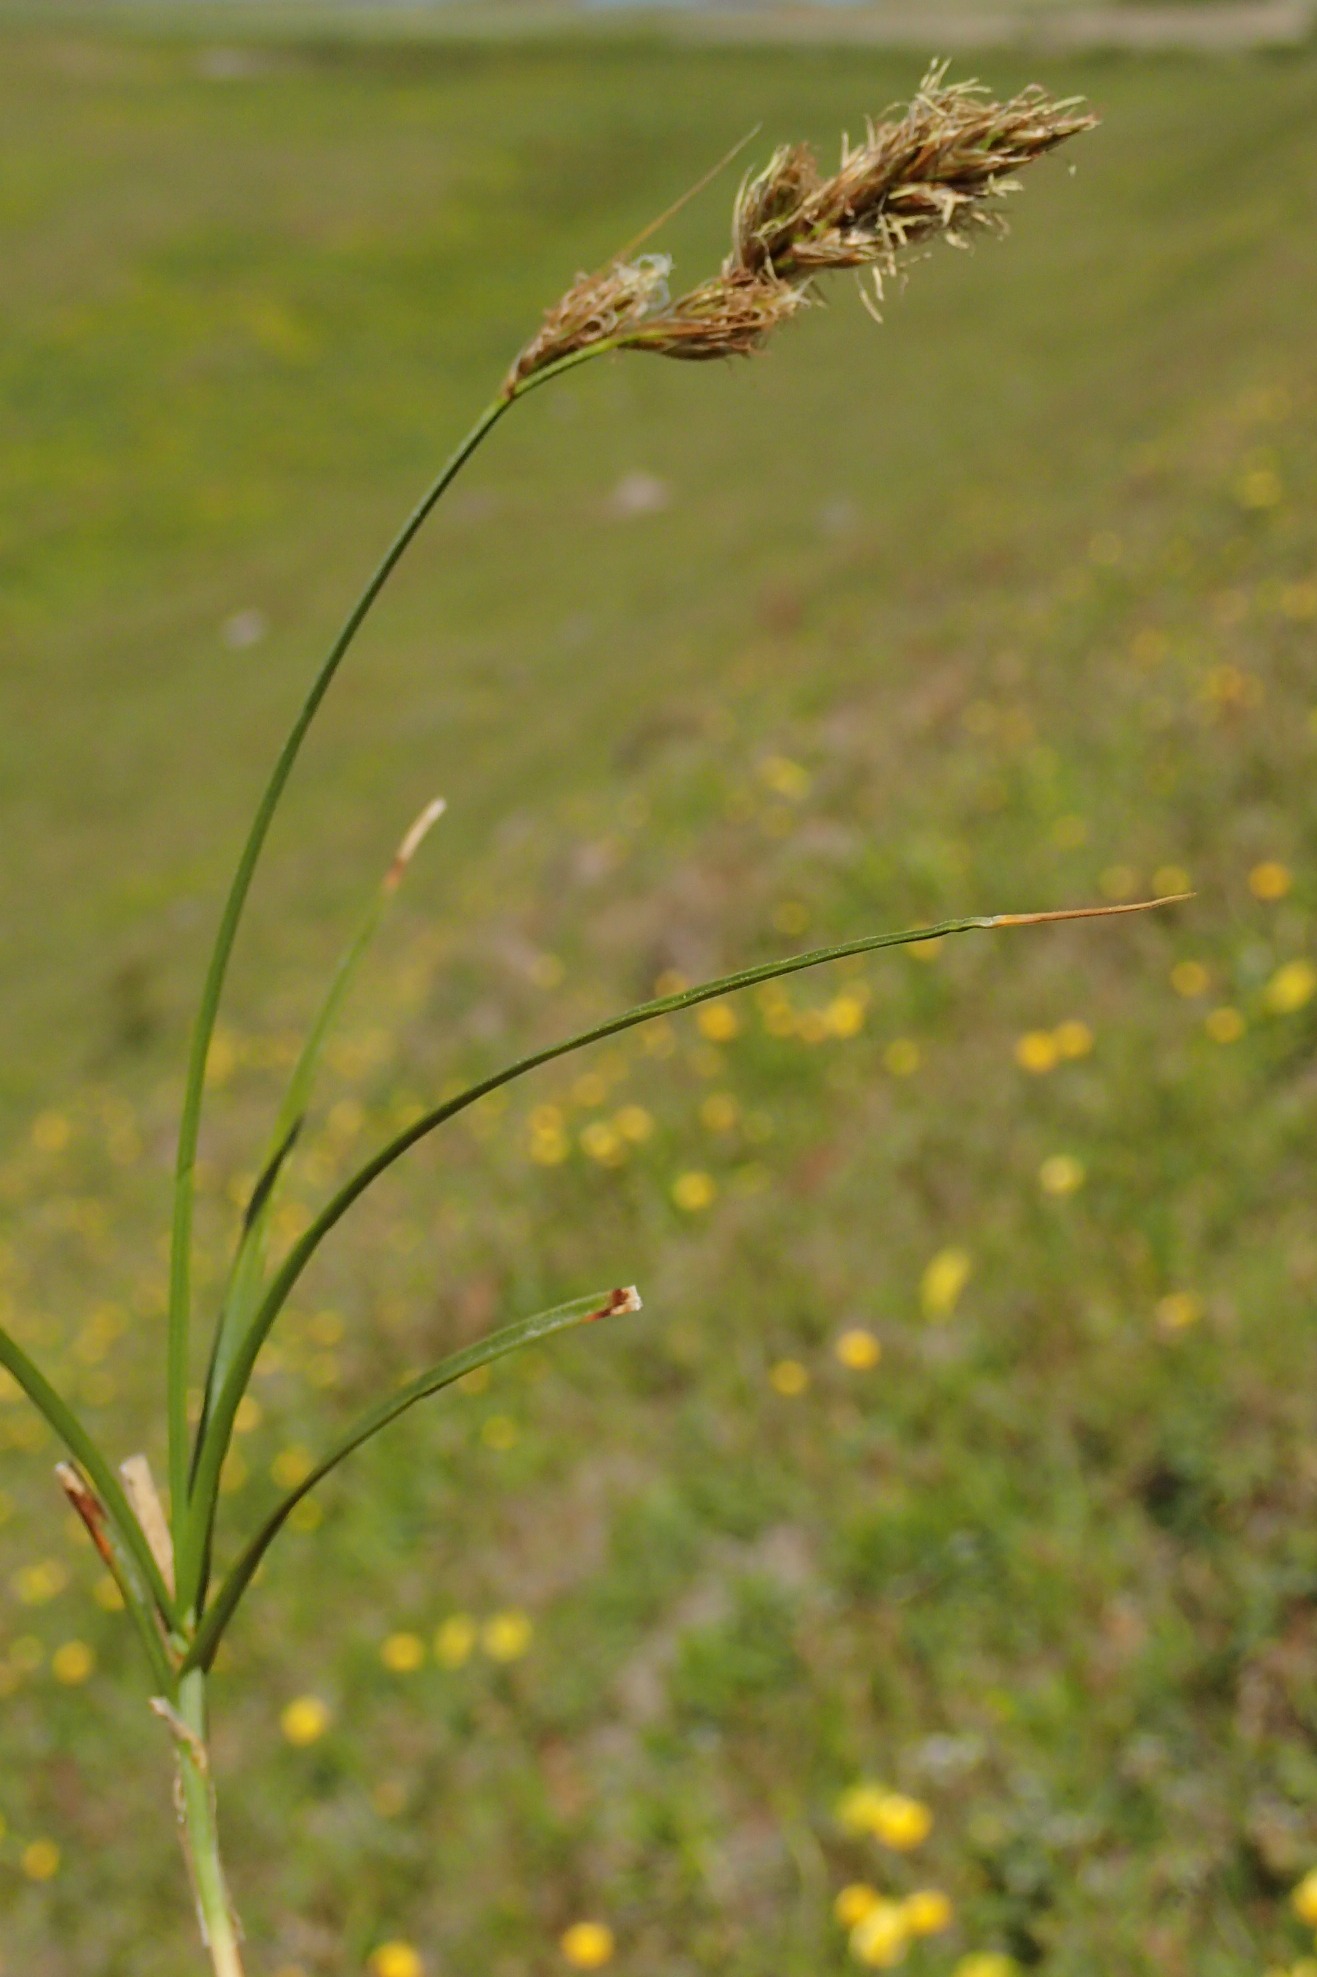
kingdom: Plantae
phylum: Tracheophyta
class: Liliopsida
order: Poales
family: Cyperaceae
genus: Carex
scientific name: Carex arenaria
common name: Sand-star
